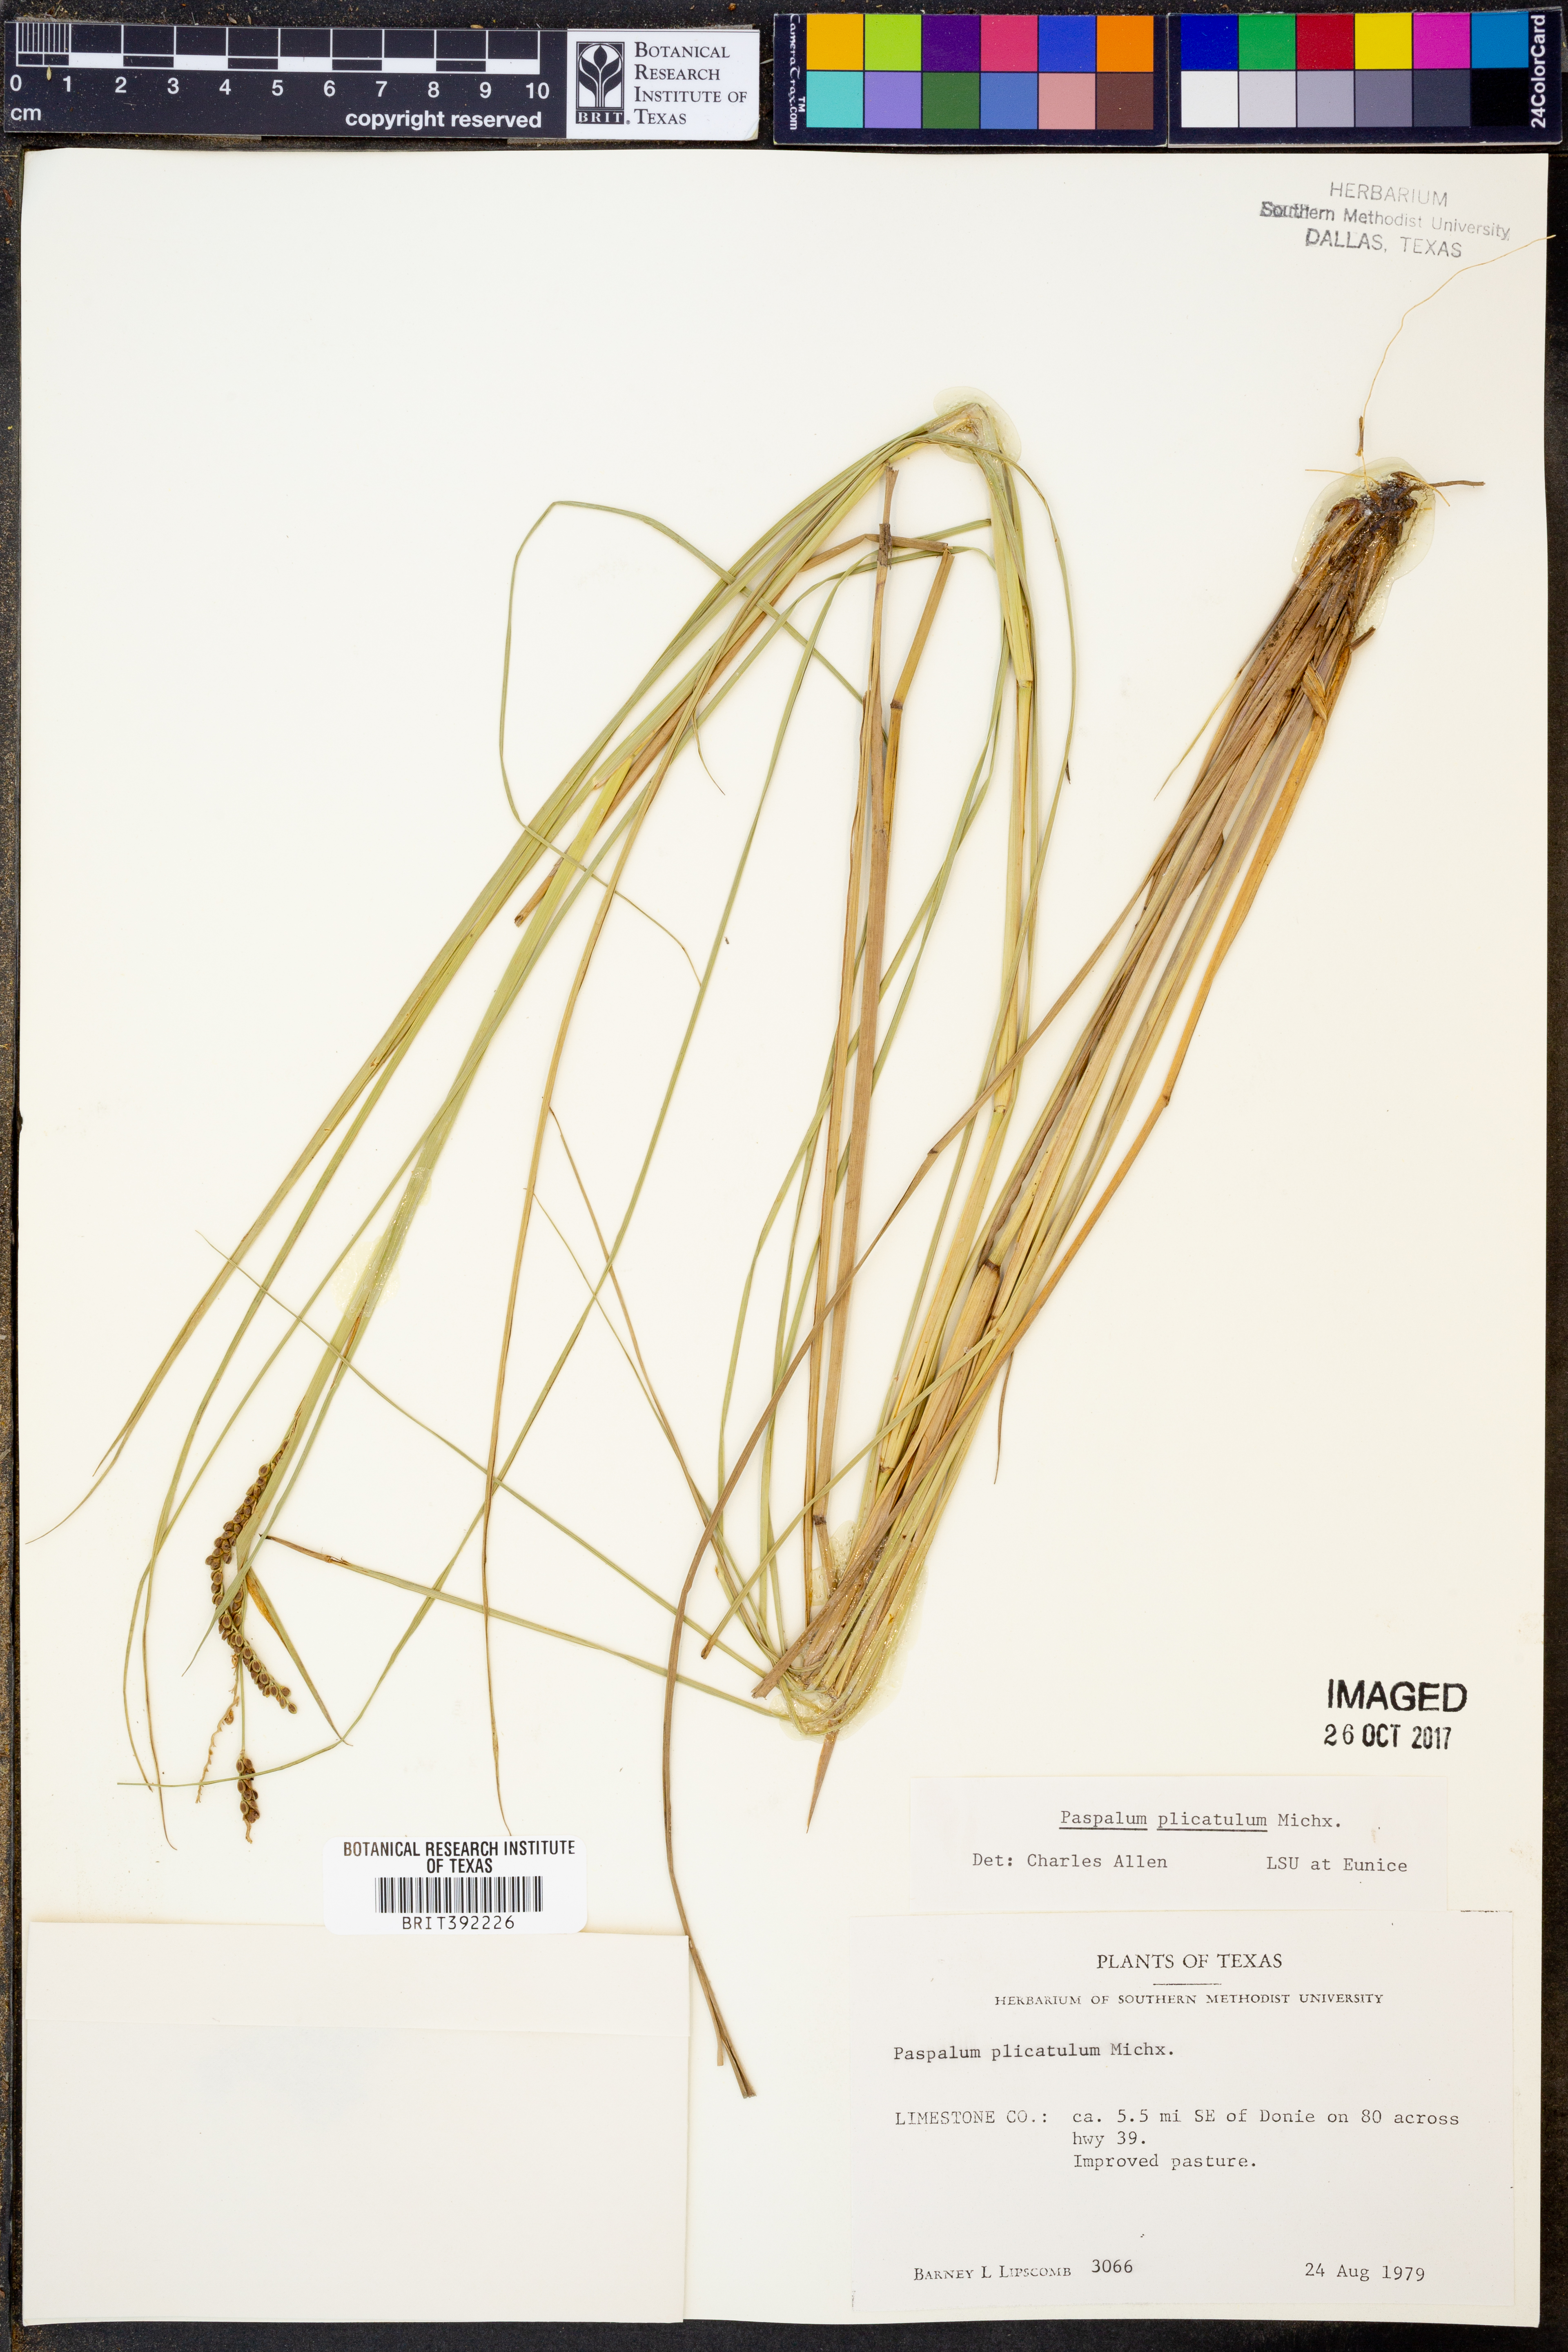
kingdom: Plantae
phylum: Tracheophyta
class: Liliopsida
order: Poales
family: Poaceae
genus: Paspalum
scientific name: Paspalum plicatulum
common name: Top paspalum
